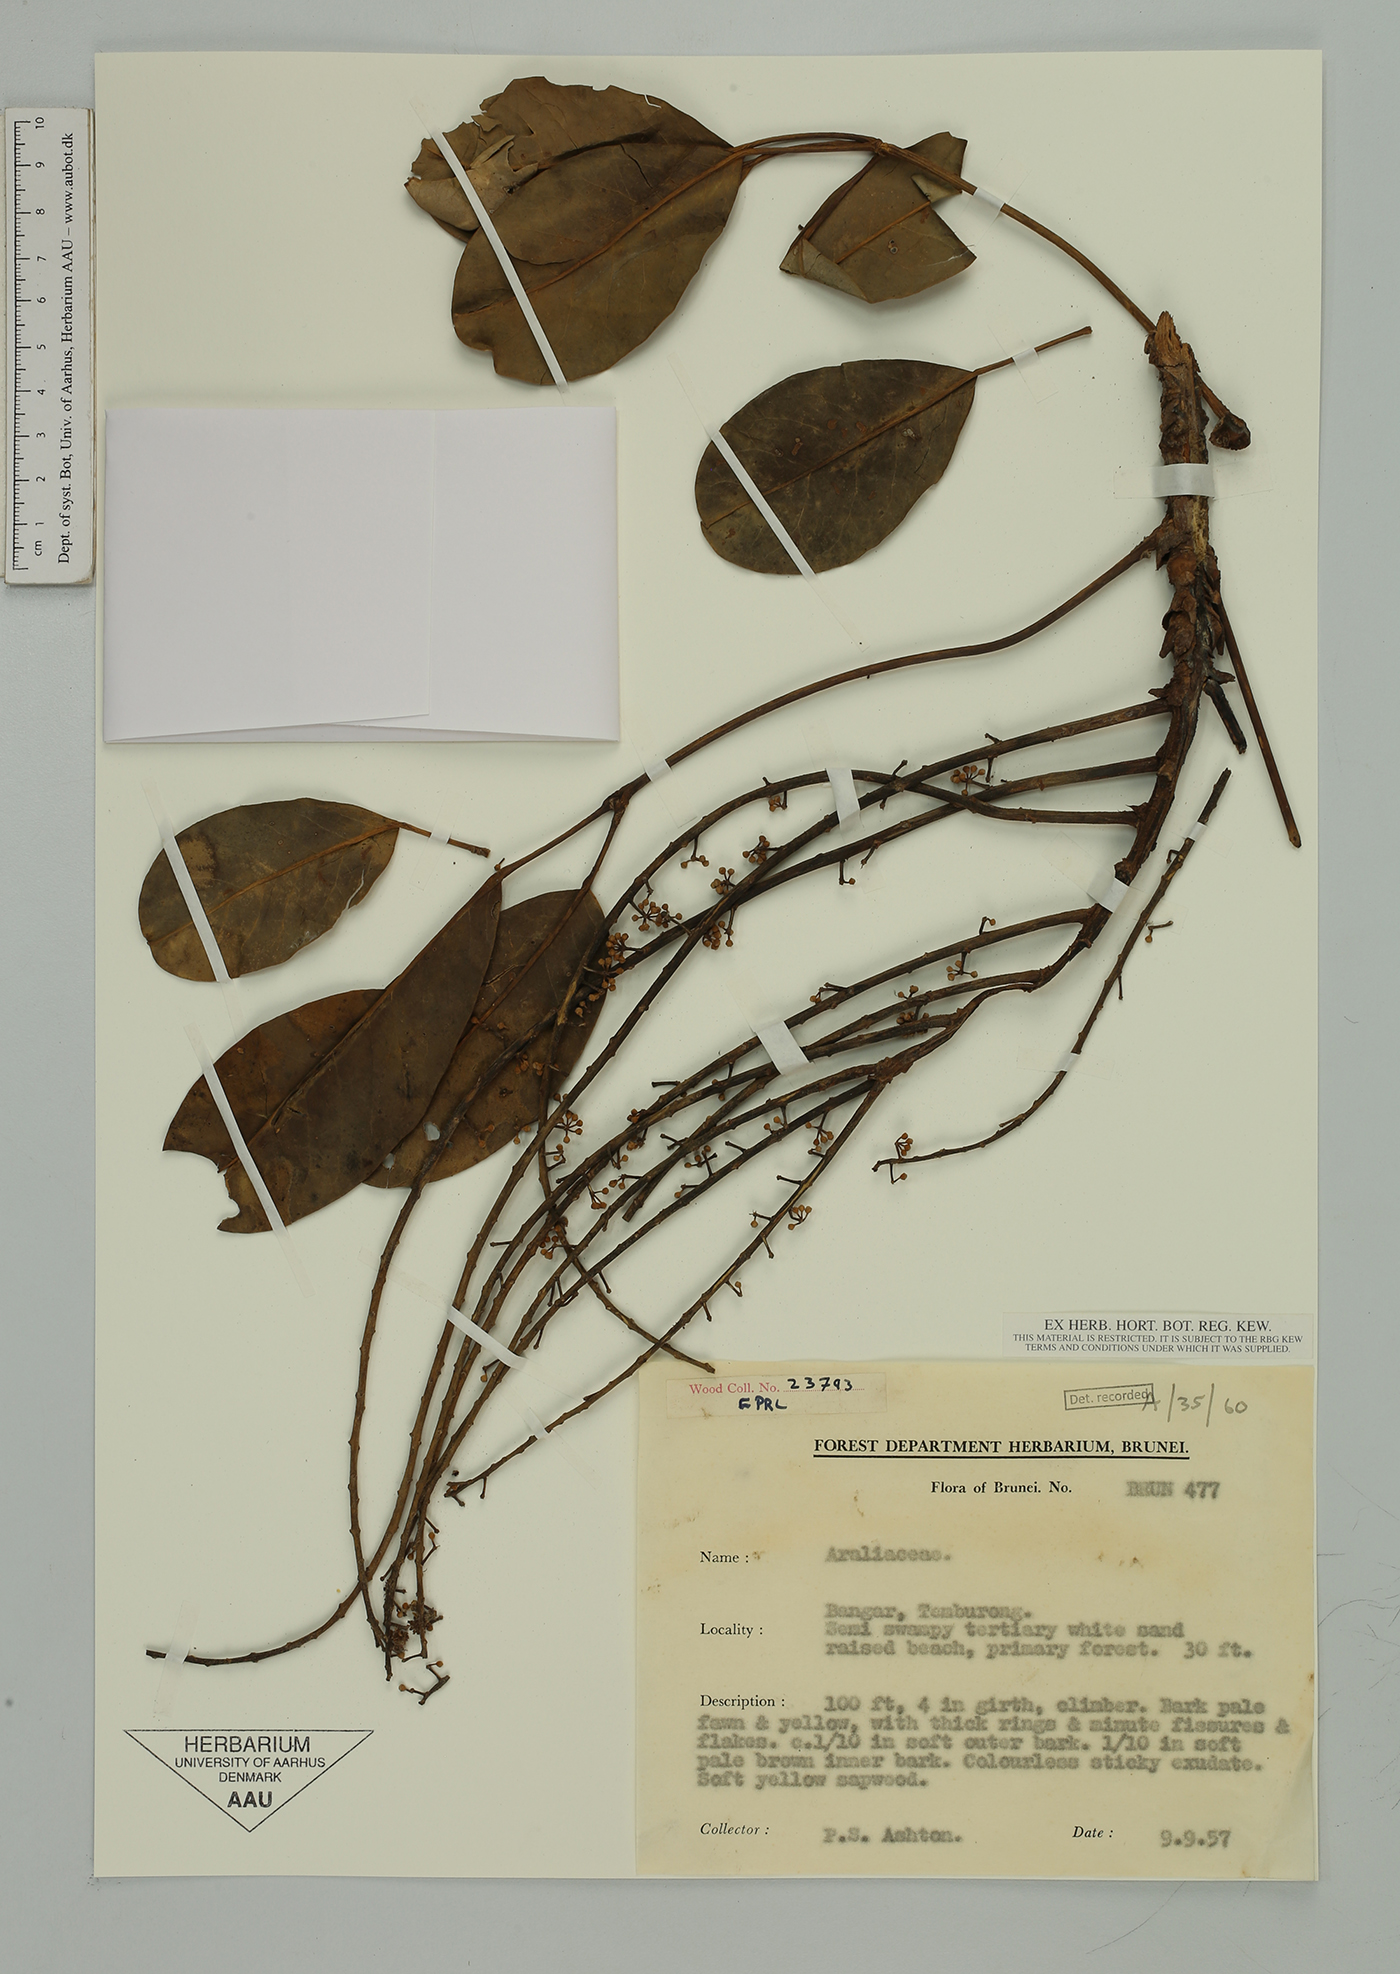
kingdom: Plantae
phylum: Tracheophyta
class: Magnoliopsida
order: Apiales
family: Araliaceae
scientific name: Araliaceae
